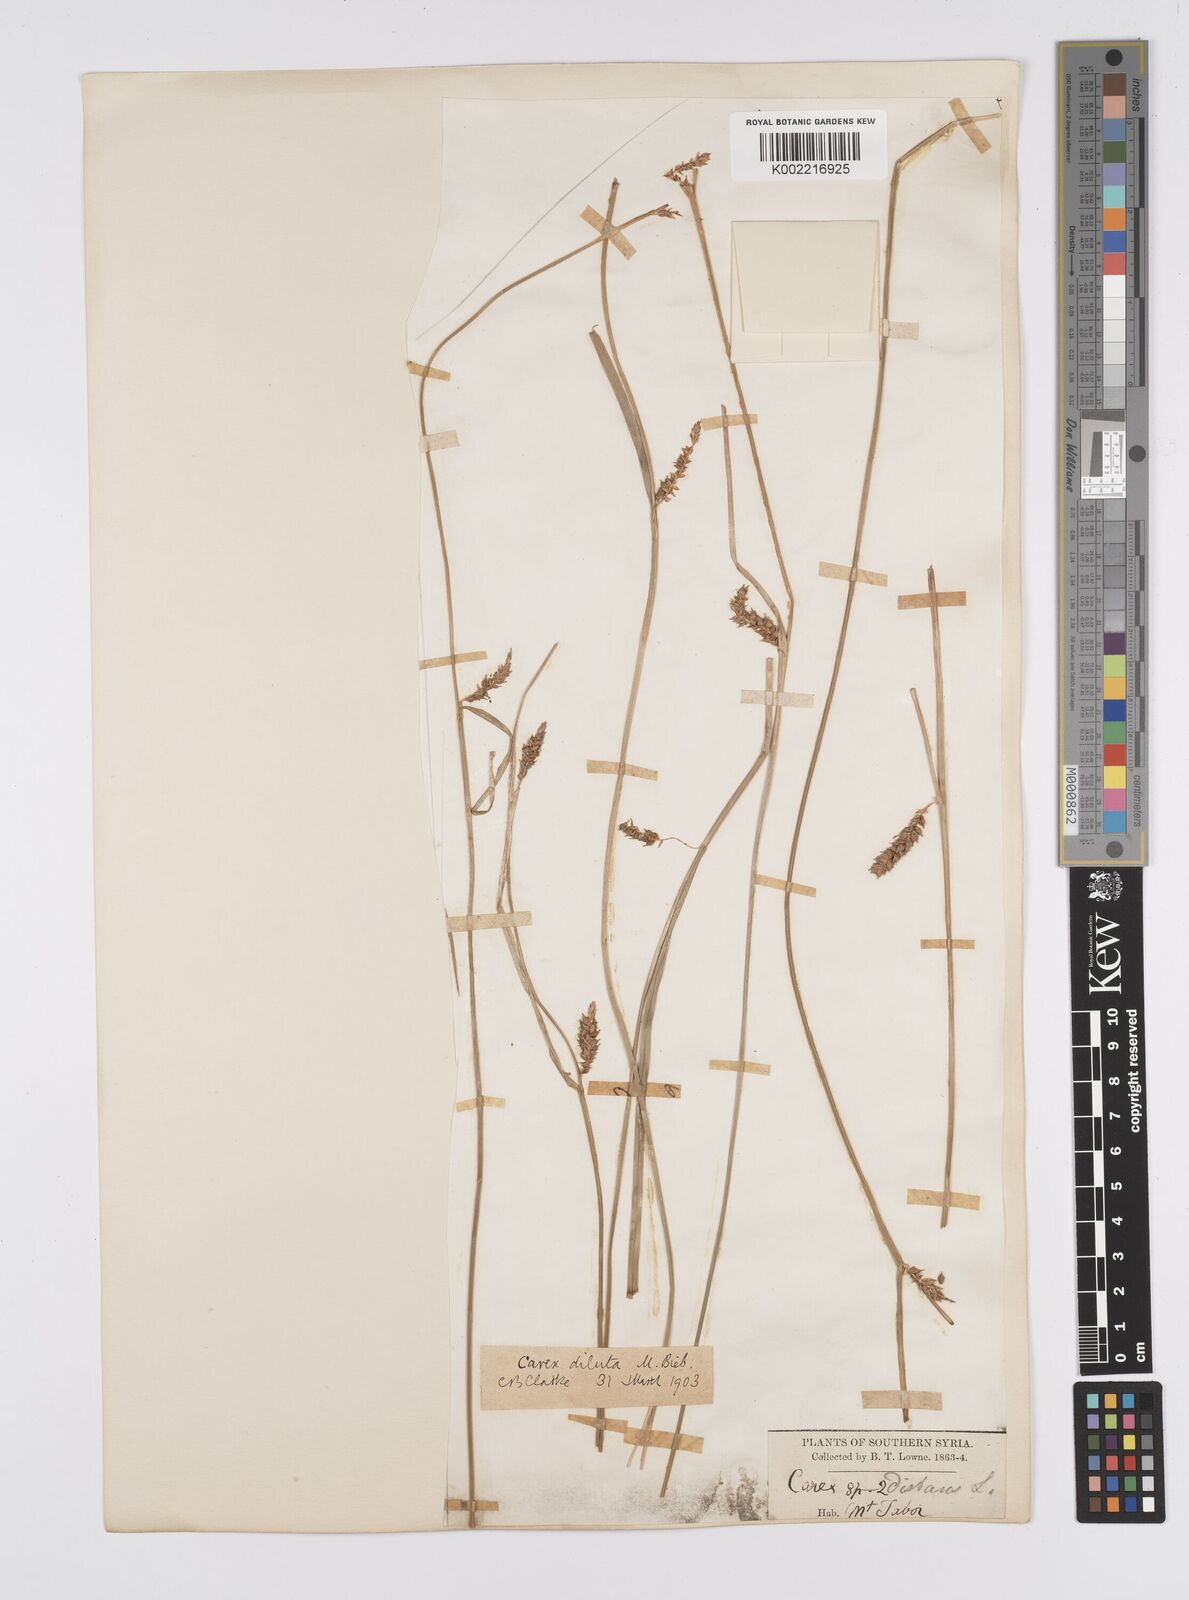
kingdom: Plantae
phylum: Tracheophyta
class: Liliopsida
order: Poales
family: Cyperaceae
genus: Carex
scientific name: Carex distans
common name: Distant sedge
